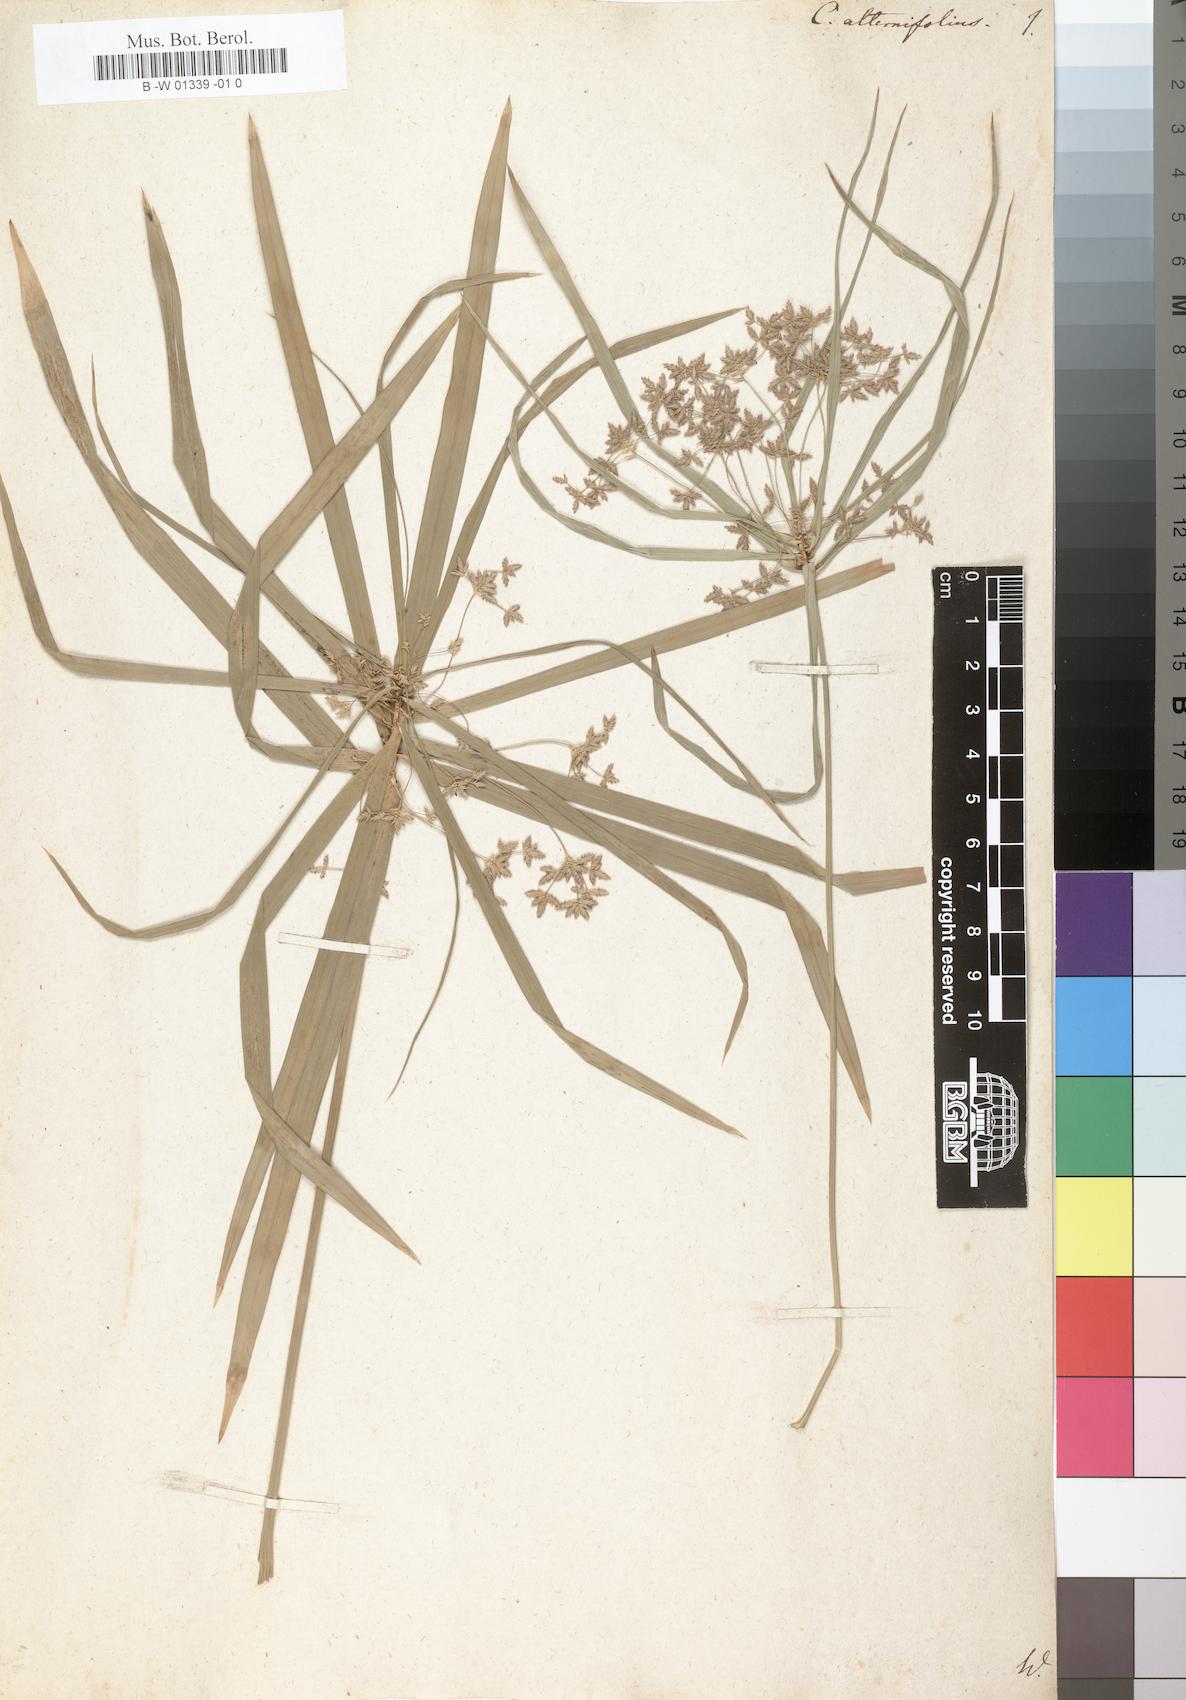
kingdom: Plantae
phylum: Tracheophyta
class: Liliopsida
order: Poales
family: Cyperaceae
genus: Cyperus
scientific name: Cyperus alternifolius
